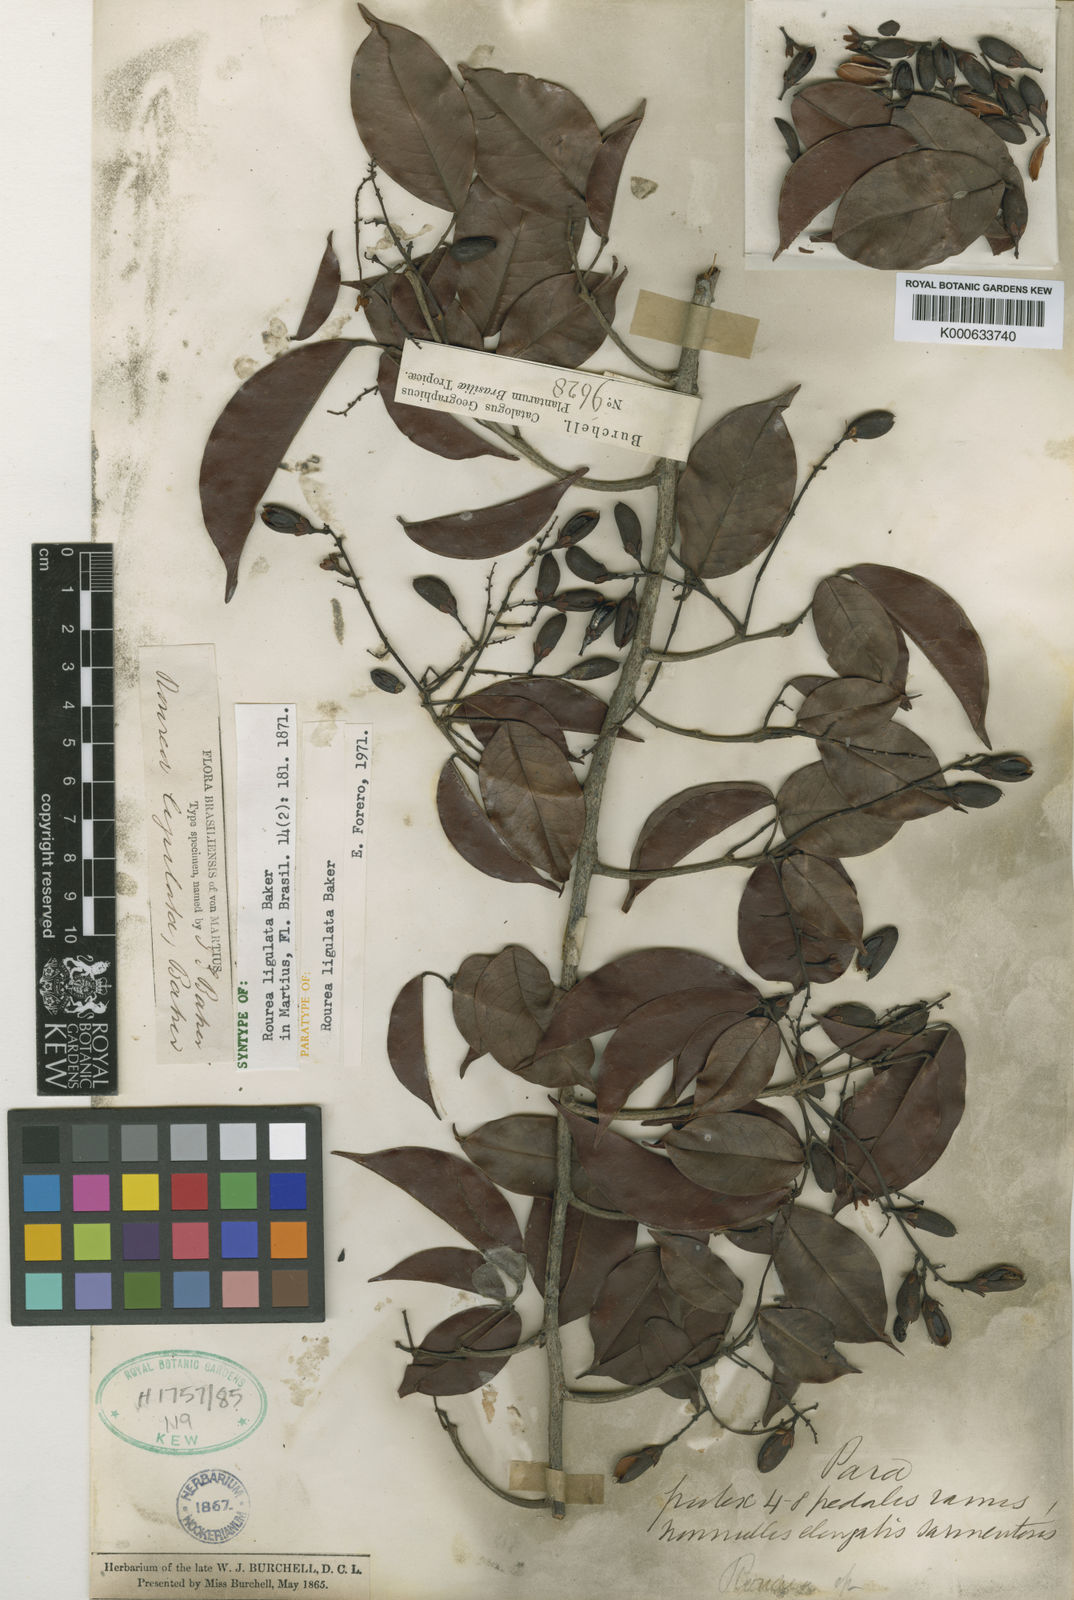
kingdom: Plantae
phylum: Tracheophyta
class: Magnoliopsida
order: Oxalidales
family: Connaraceae
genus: Rourea
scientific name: Rourea ligulata
